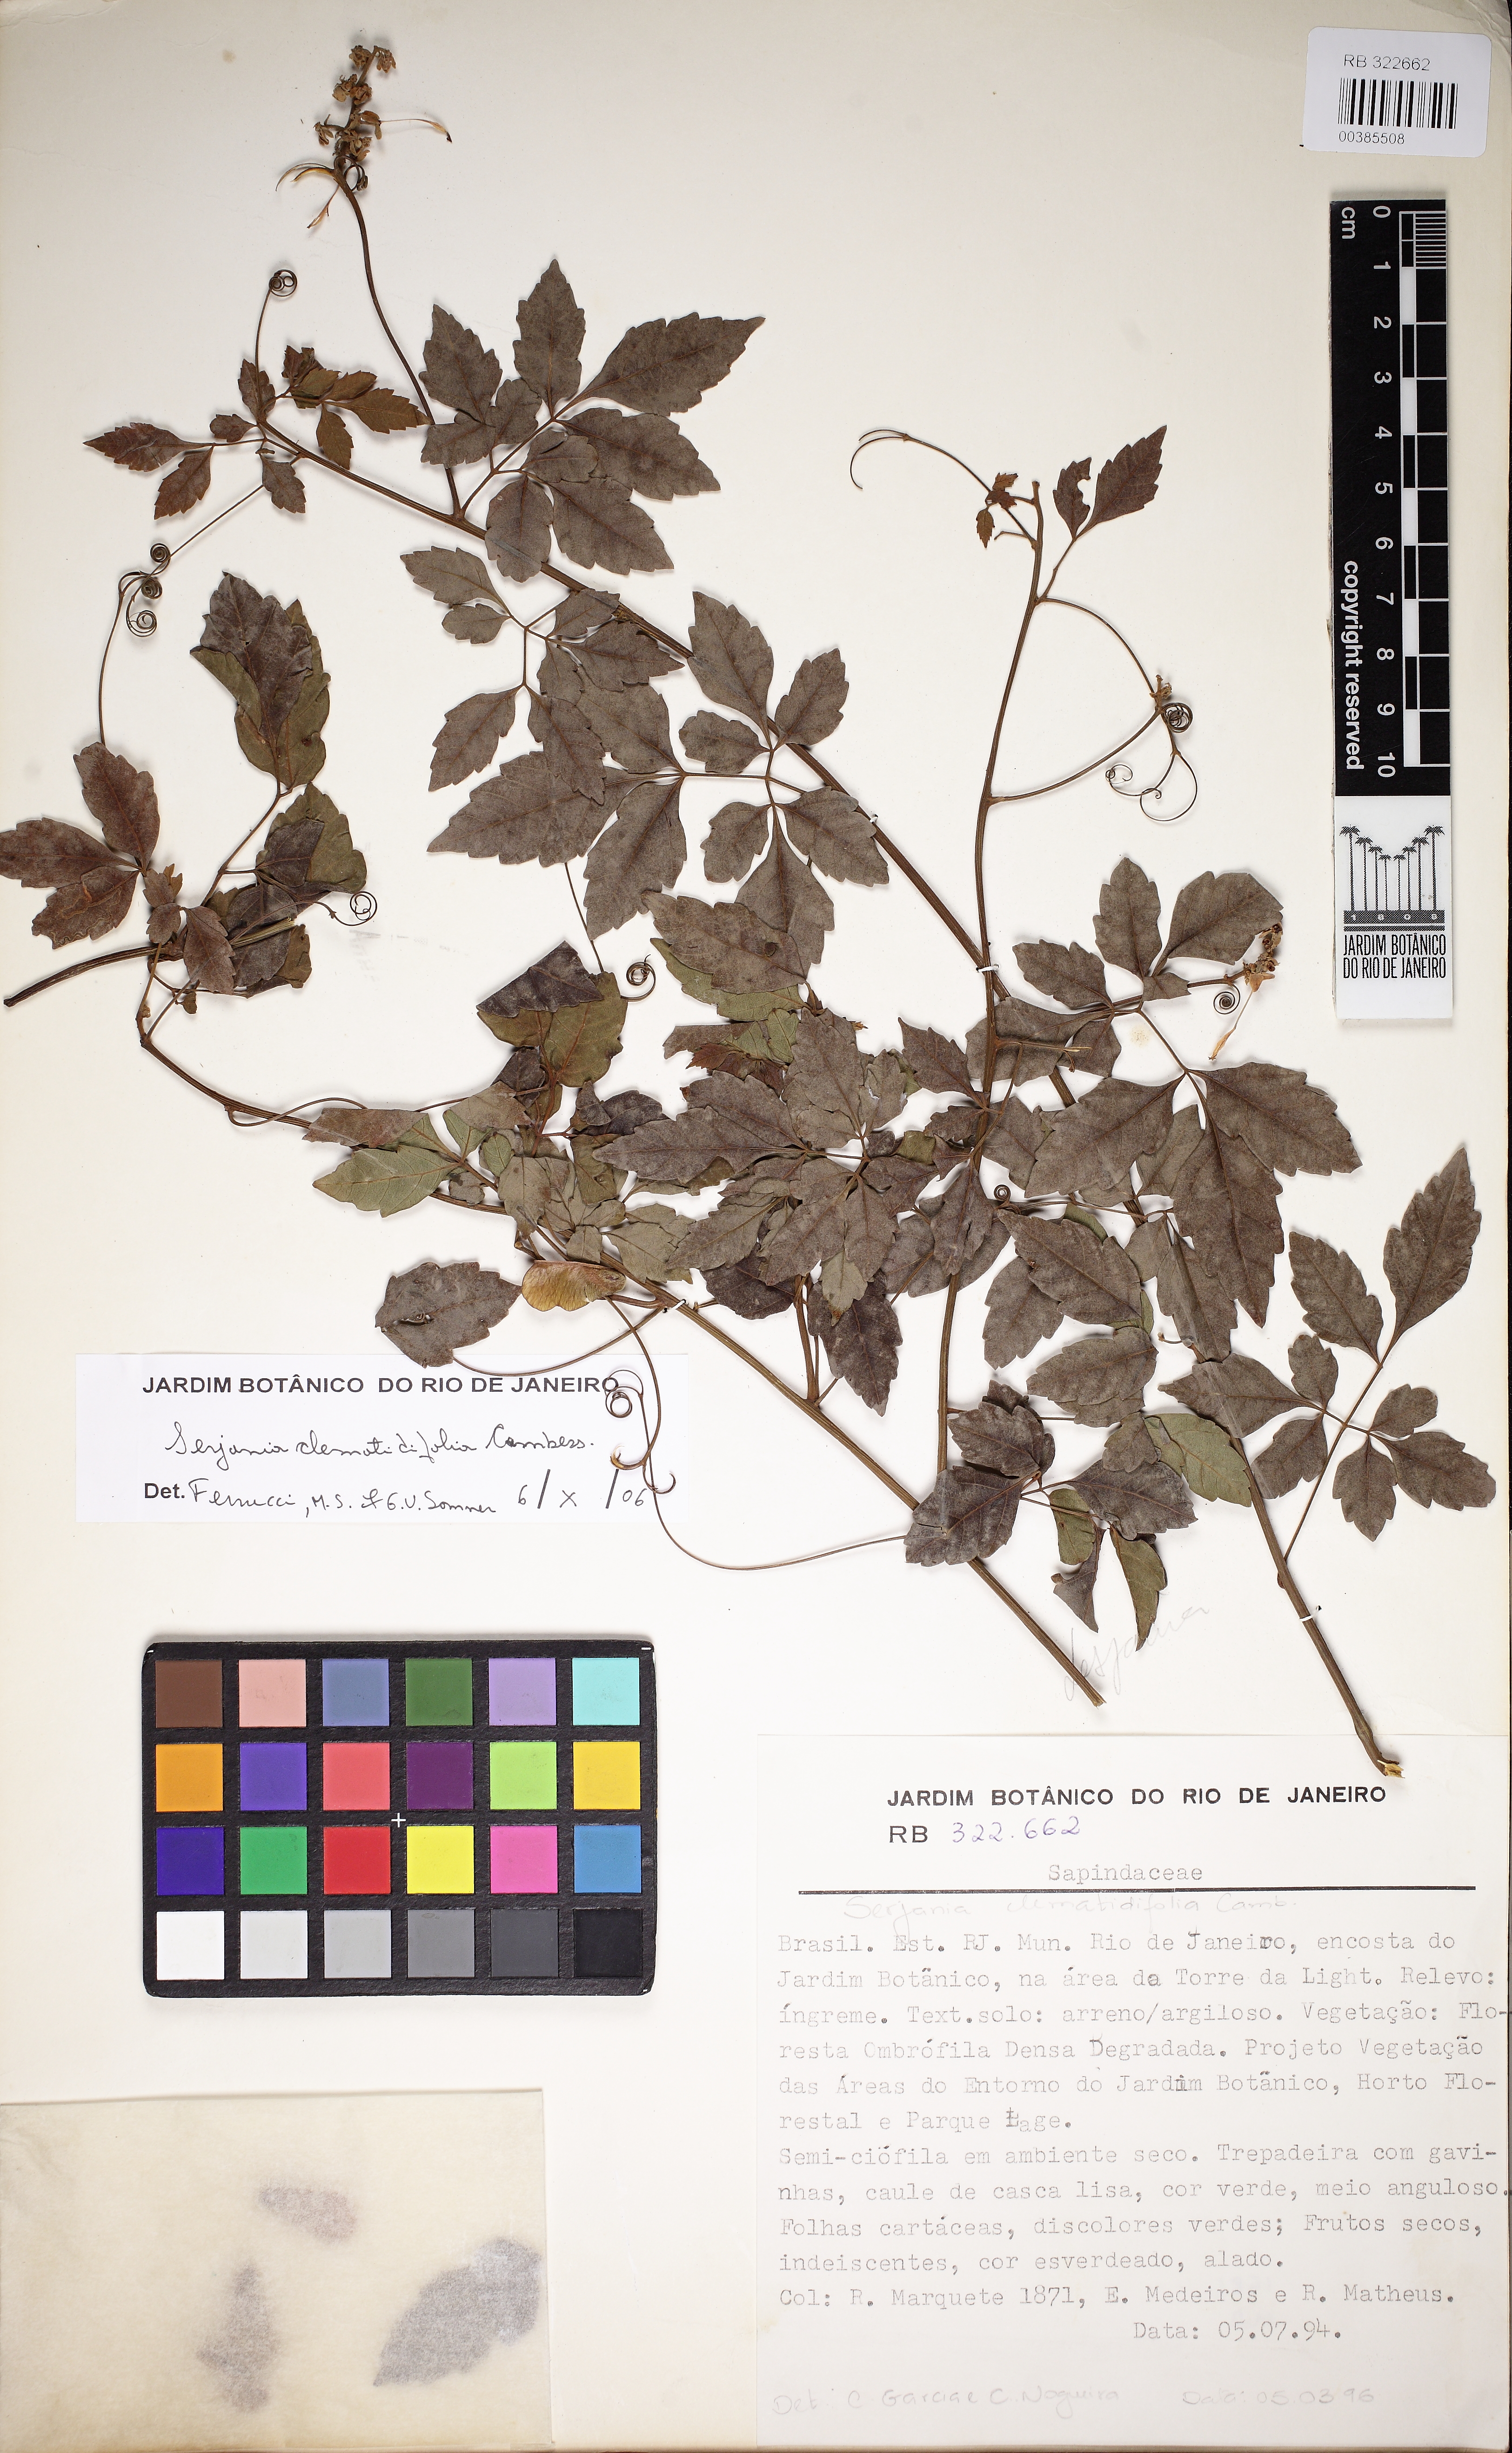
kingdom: Plantae
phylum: Tracheophyta
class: Magnoliopsida
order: Sapindales
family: Sapindaceae
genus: Serjania
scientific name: Serjania clematidifolia
